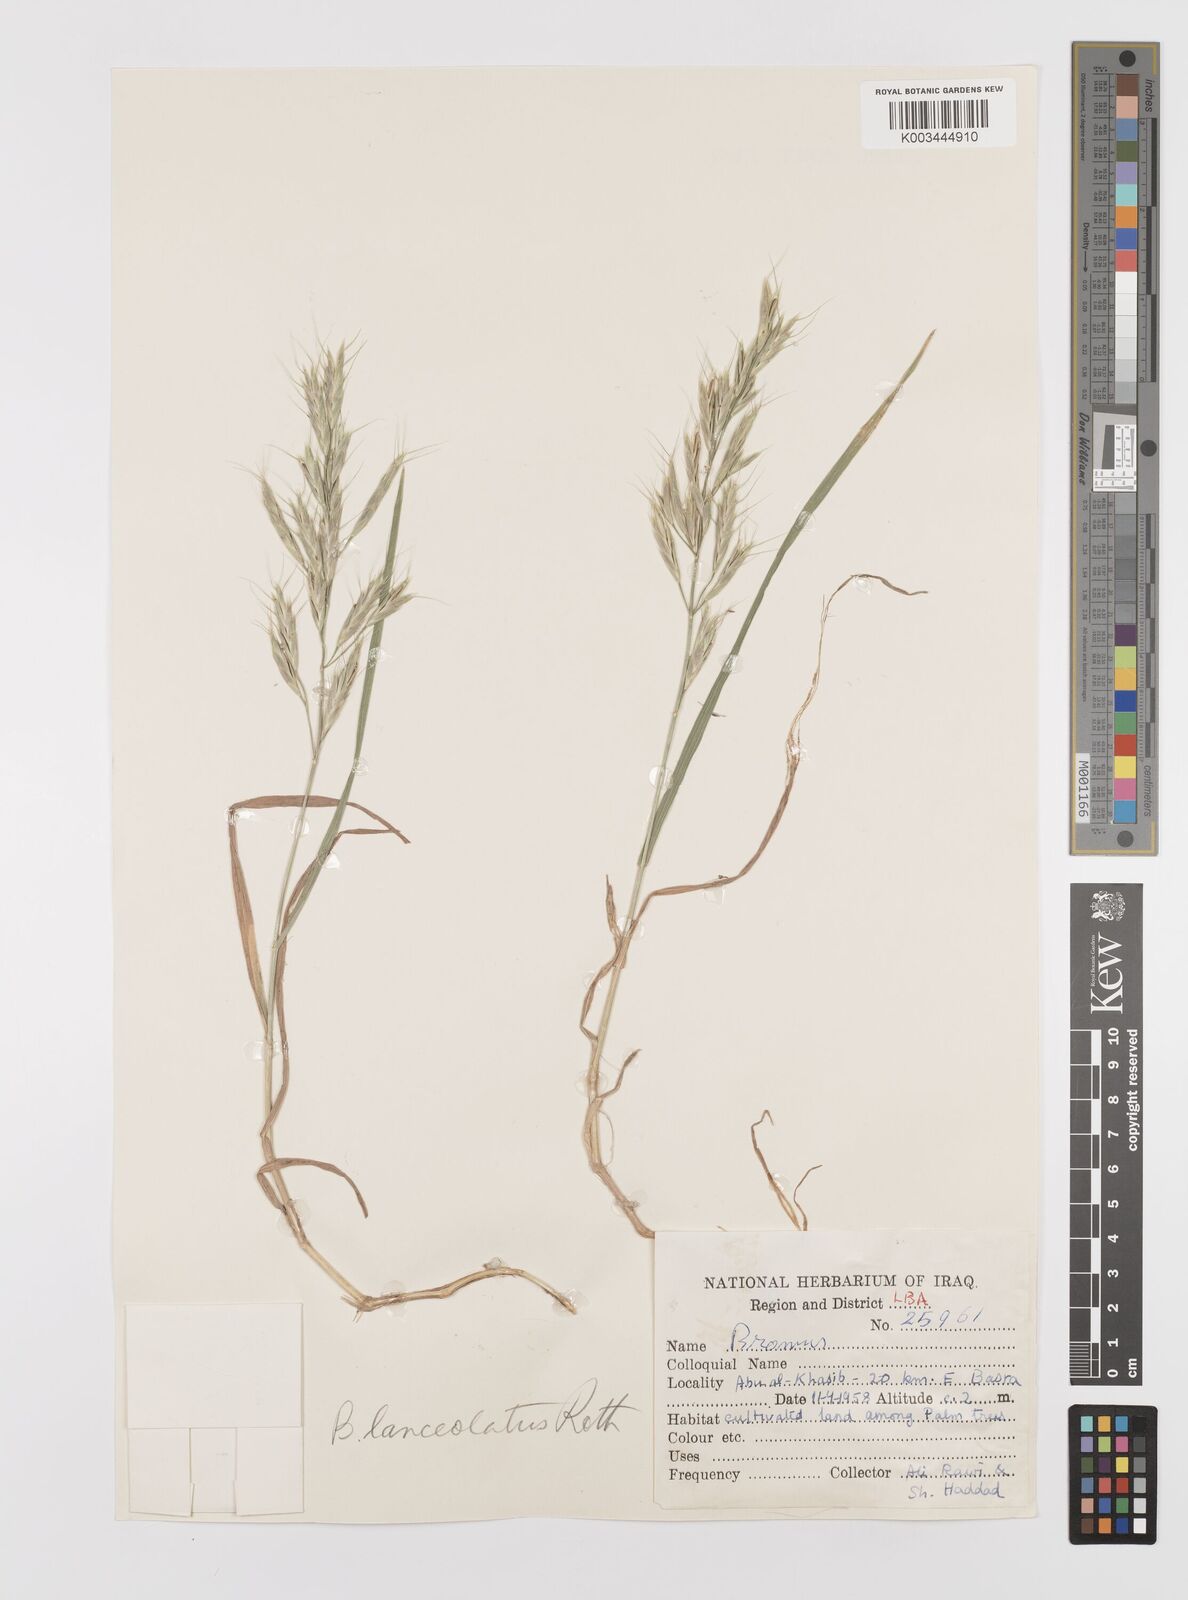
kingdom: Plantae
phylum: Tracheophyta
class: Liliopsida
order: Poales
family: Poaceae
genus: Bromus
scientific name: Bromus lanceolatus
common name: Mediterranean brome
